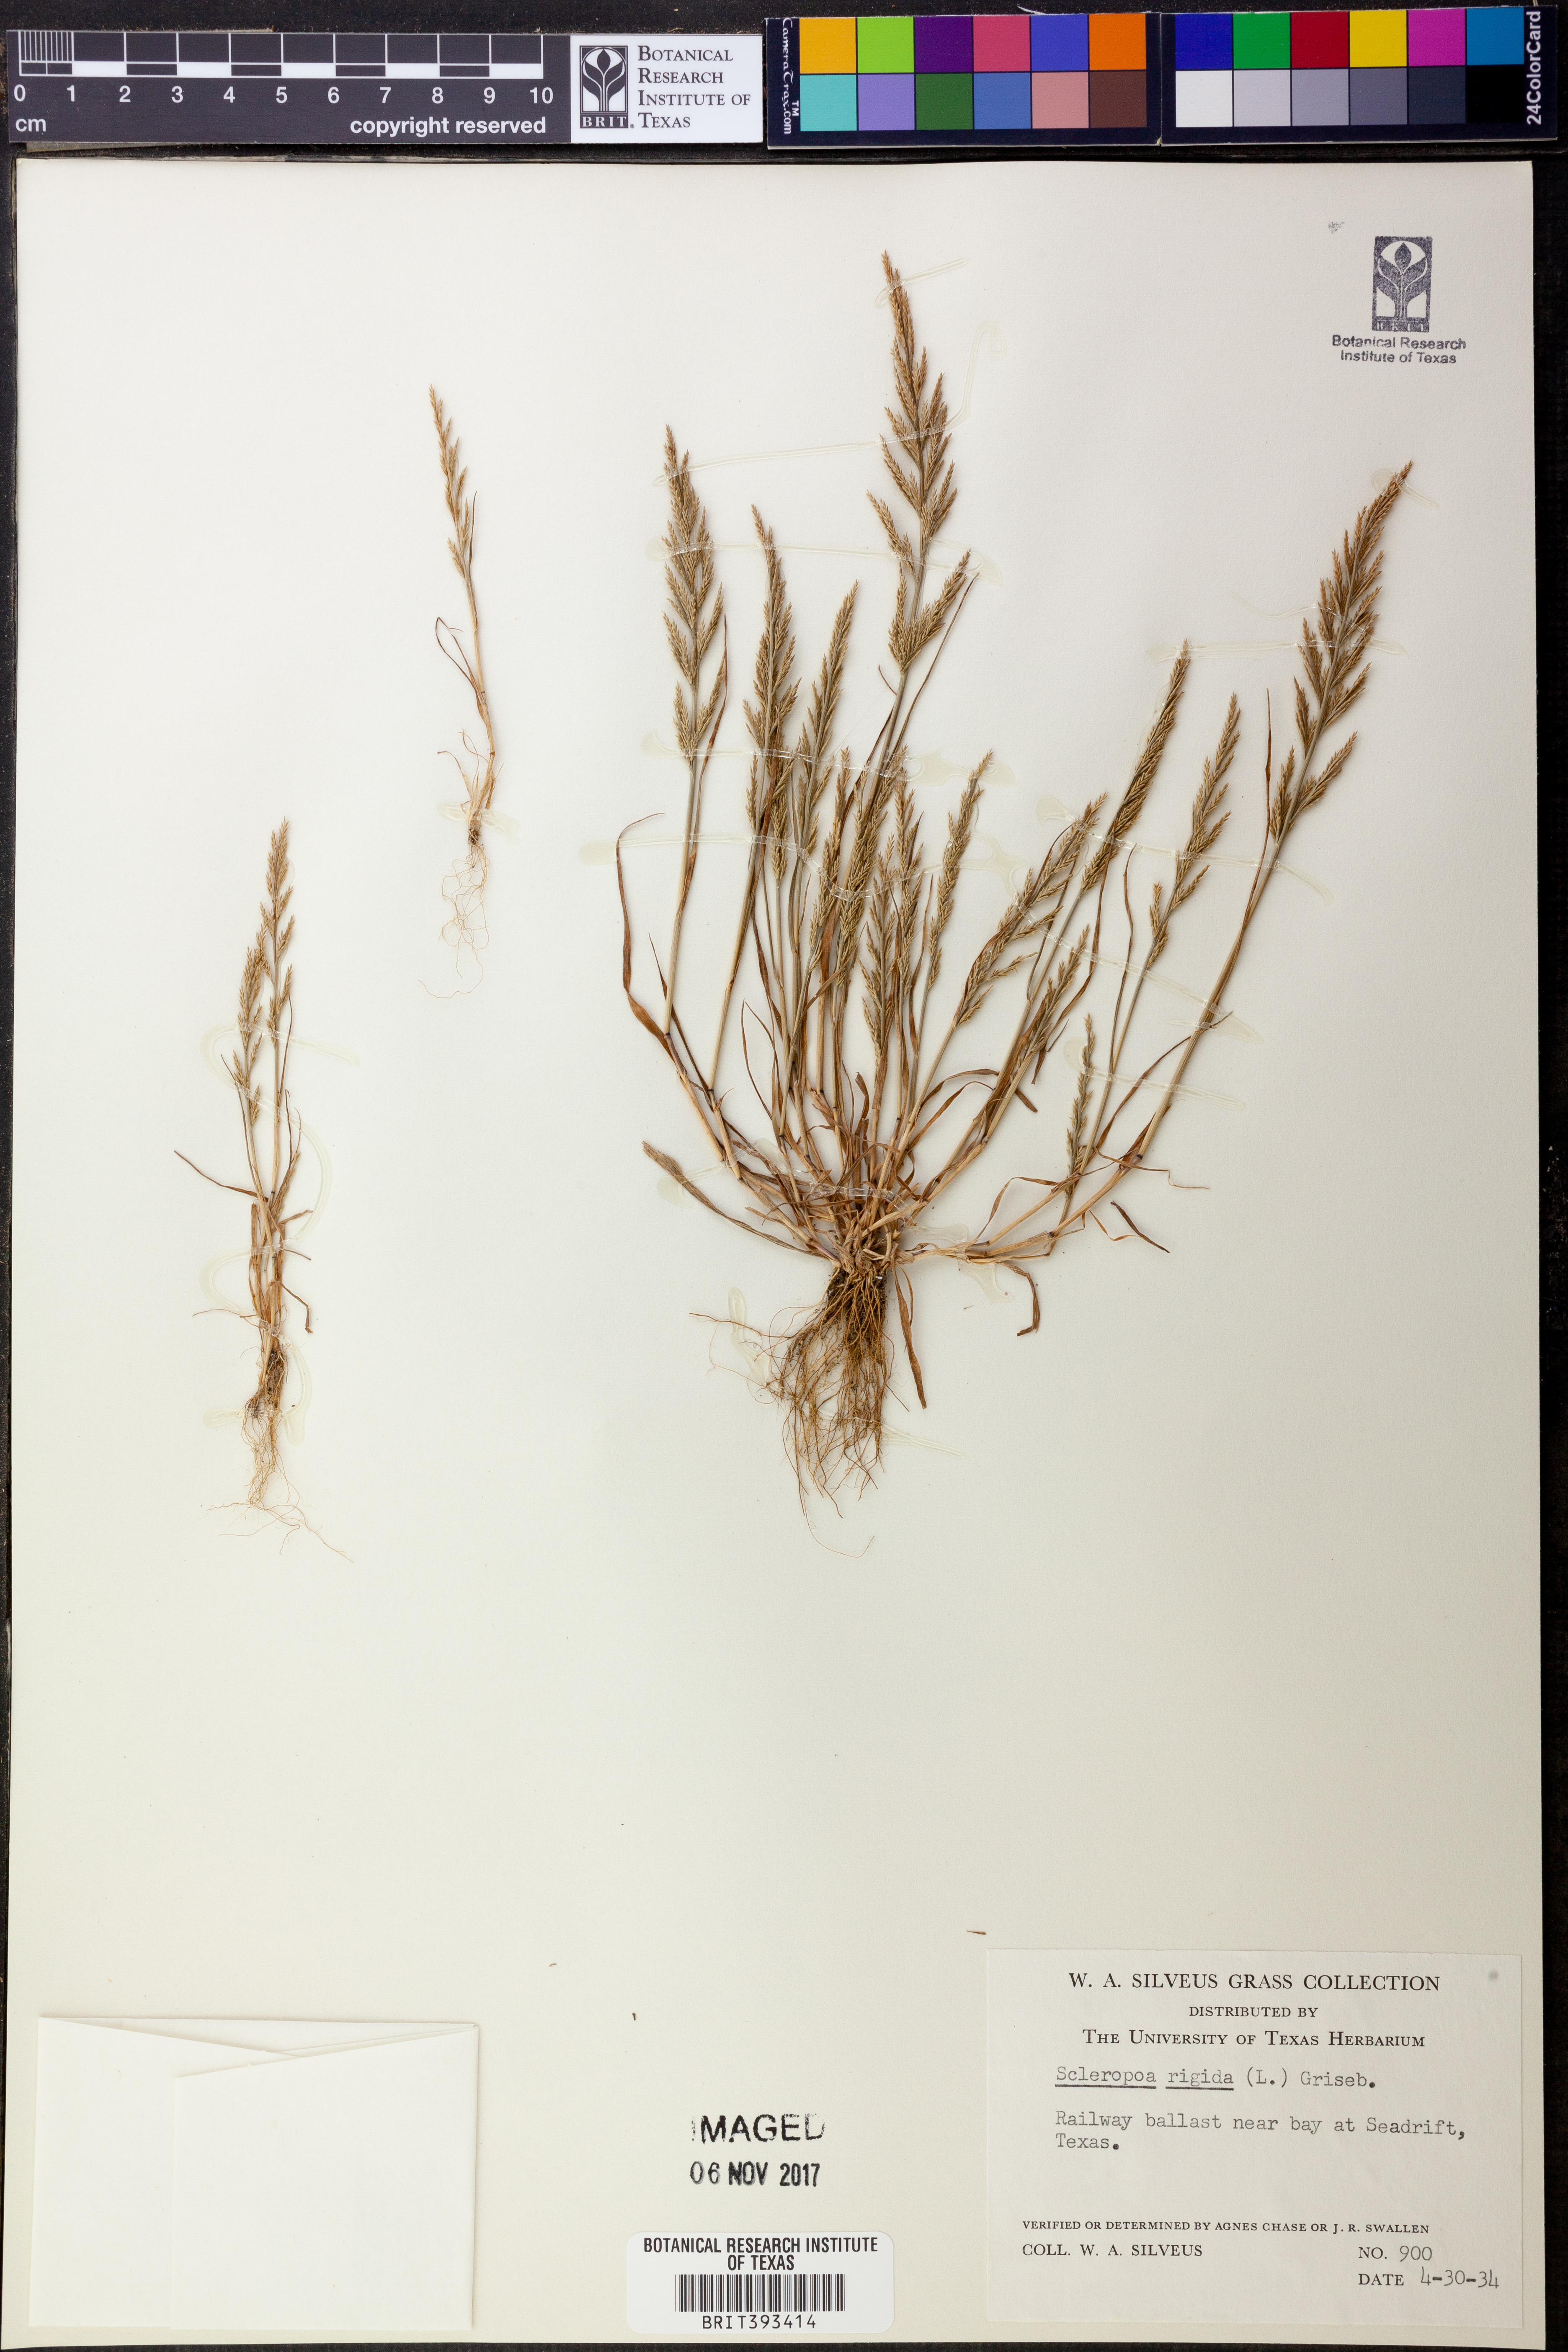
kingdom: Plantae
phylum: Tracheophyta
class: Liliopsida
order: Poales
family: Poaceae
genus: Catapodium
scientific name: Catapodium rigidum
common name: Fern-grass
